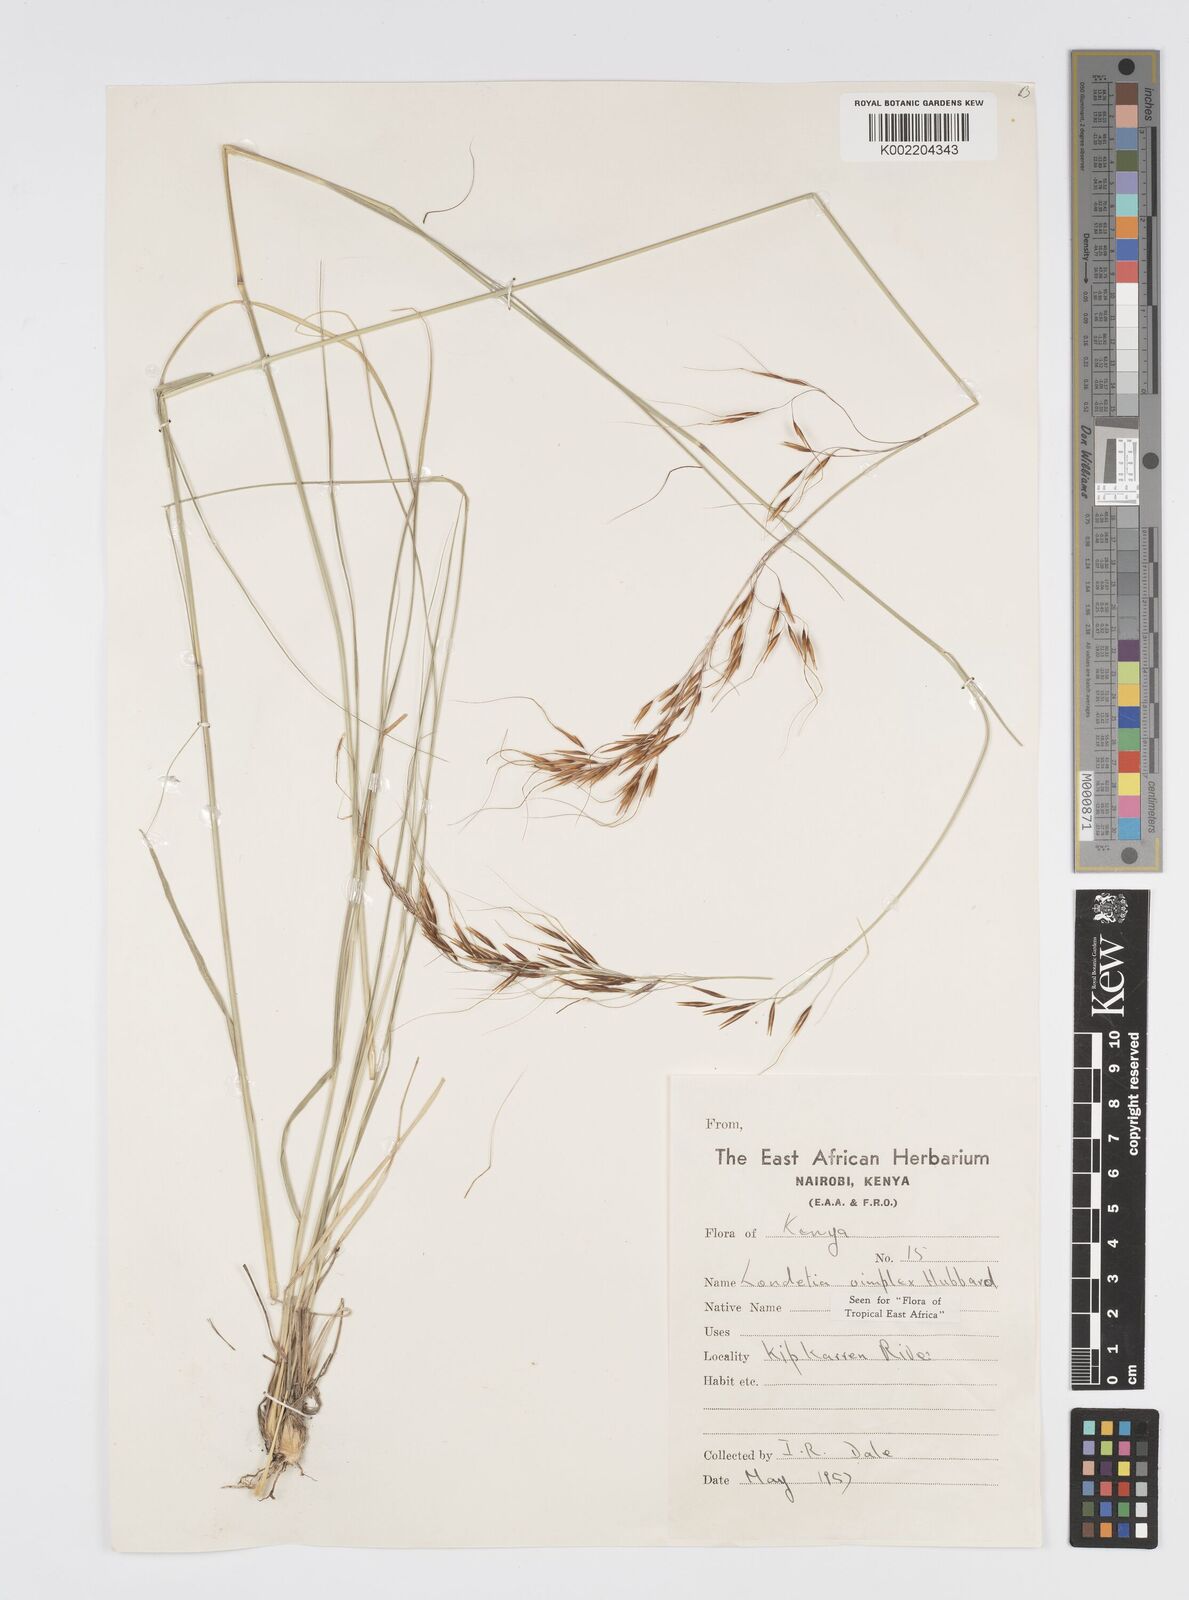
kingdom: Plantae
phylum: Tracheophyta
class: Liliopsida
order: Poales
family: Poaceae
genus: Loudetia
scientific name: Loudetia simplex
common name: Common russet grass
